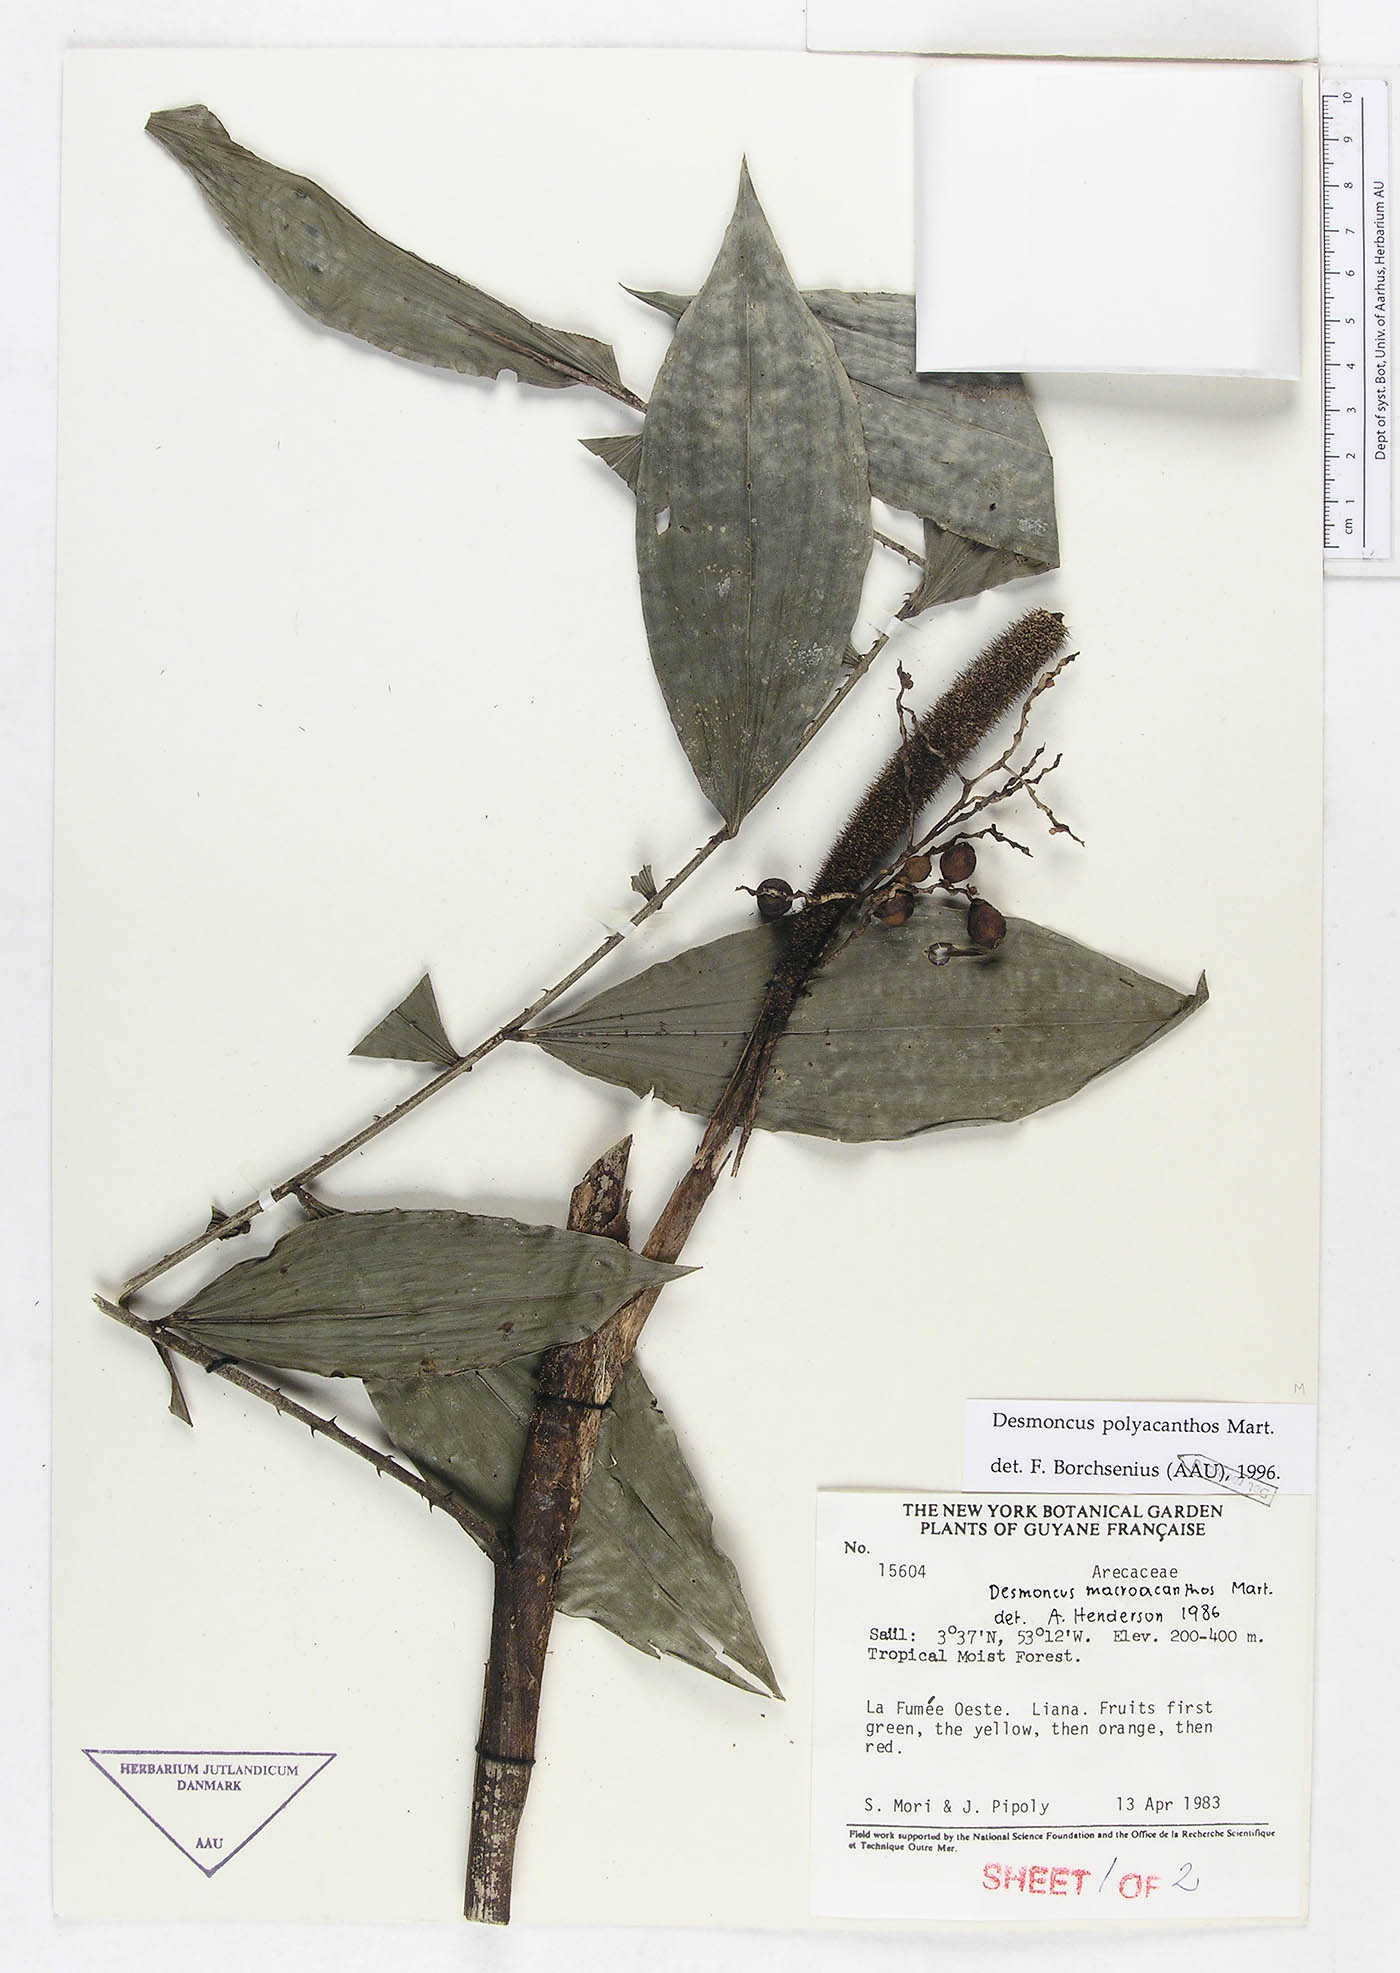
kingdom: Plantae
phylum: Tracheophyta
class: Liliopsida
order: Arecales
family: Arecaceae
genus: Desmoncus
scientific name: Desmoncus polyacanthos
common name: Suriname bramble palm
